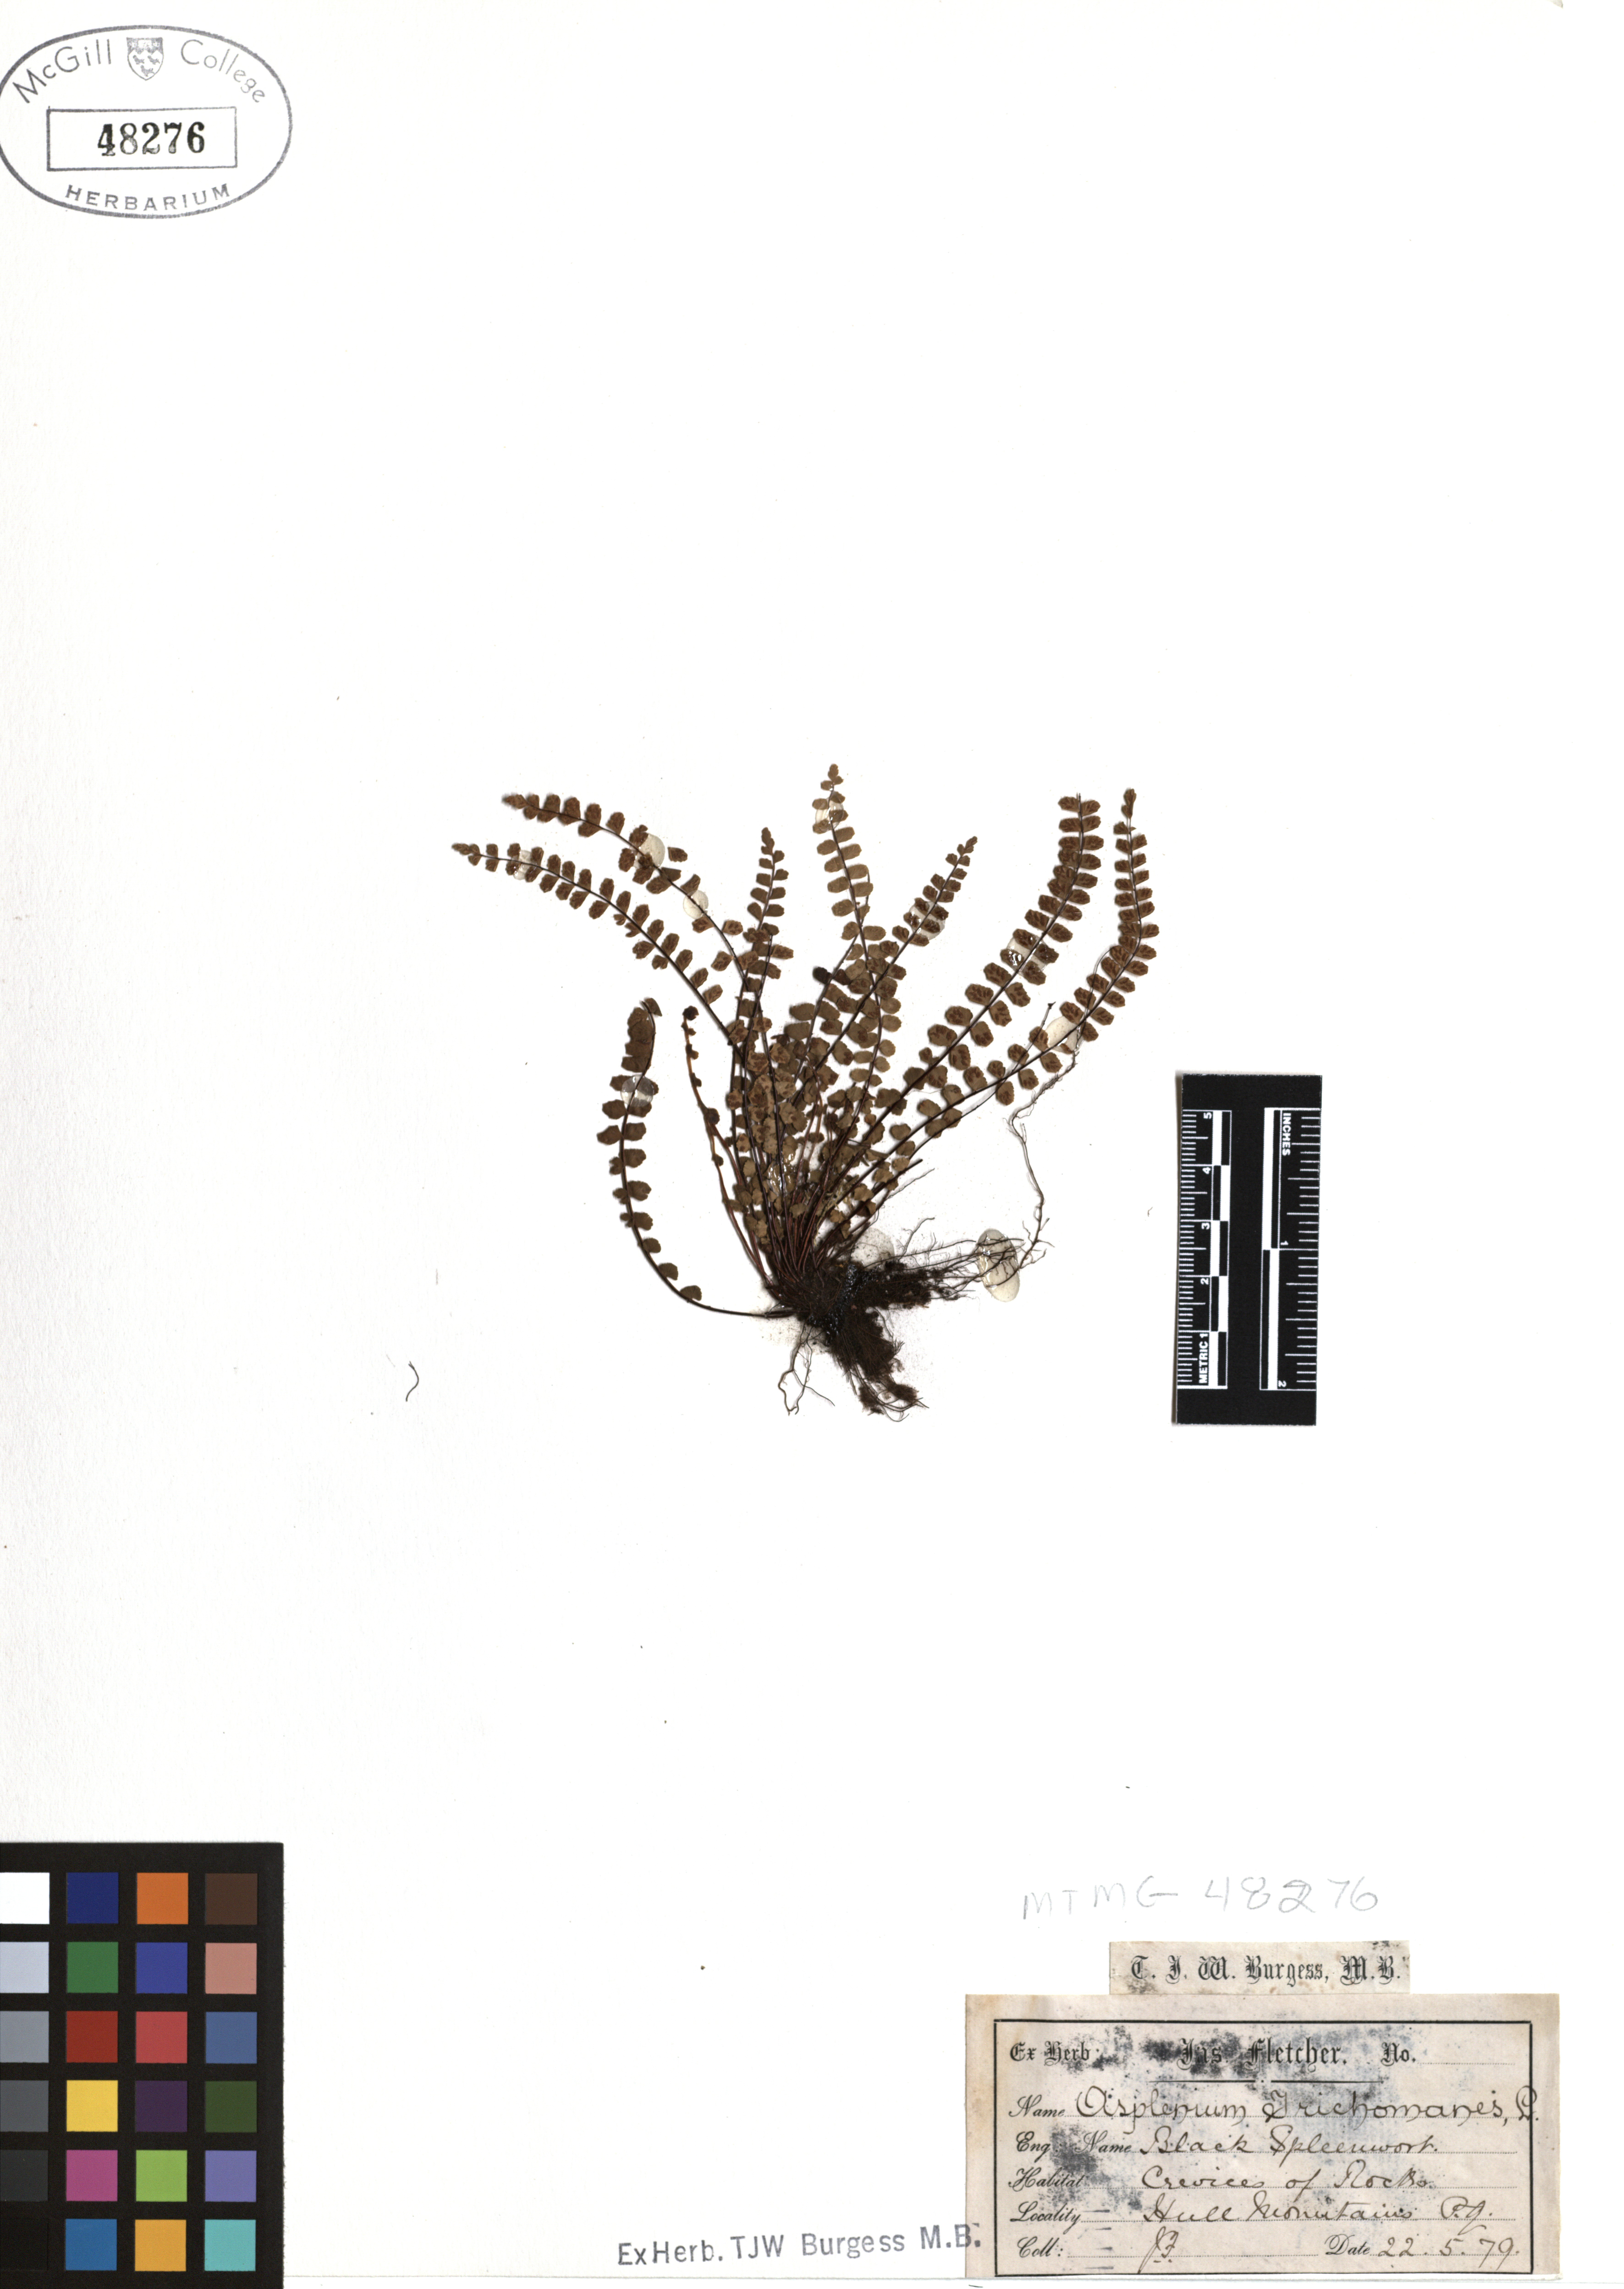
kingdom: Plantae
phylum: Tracheophyta
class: Polypodiopsida
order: Polypodiales
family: Aspleniaceae
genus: Asplenium
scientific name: Asplenium trichomanes
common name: Maidenhair spleenwort
